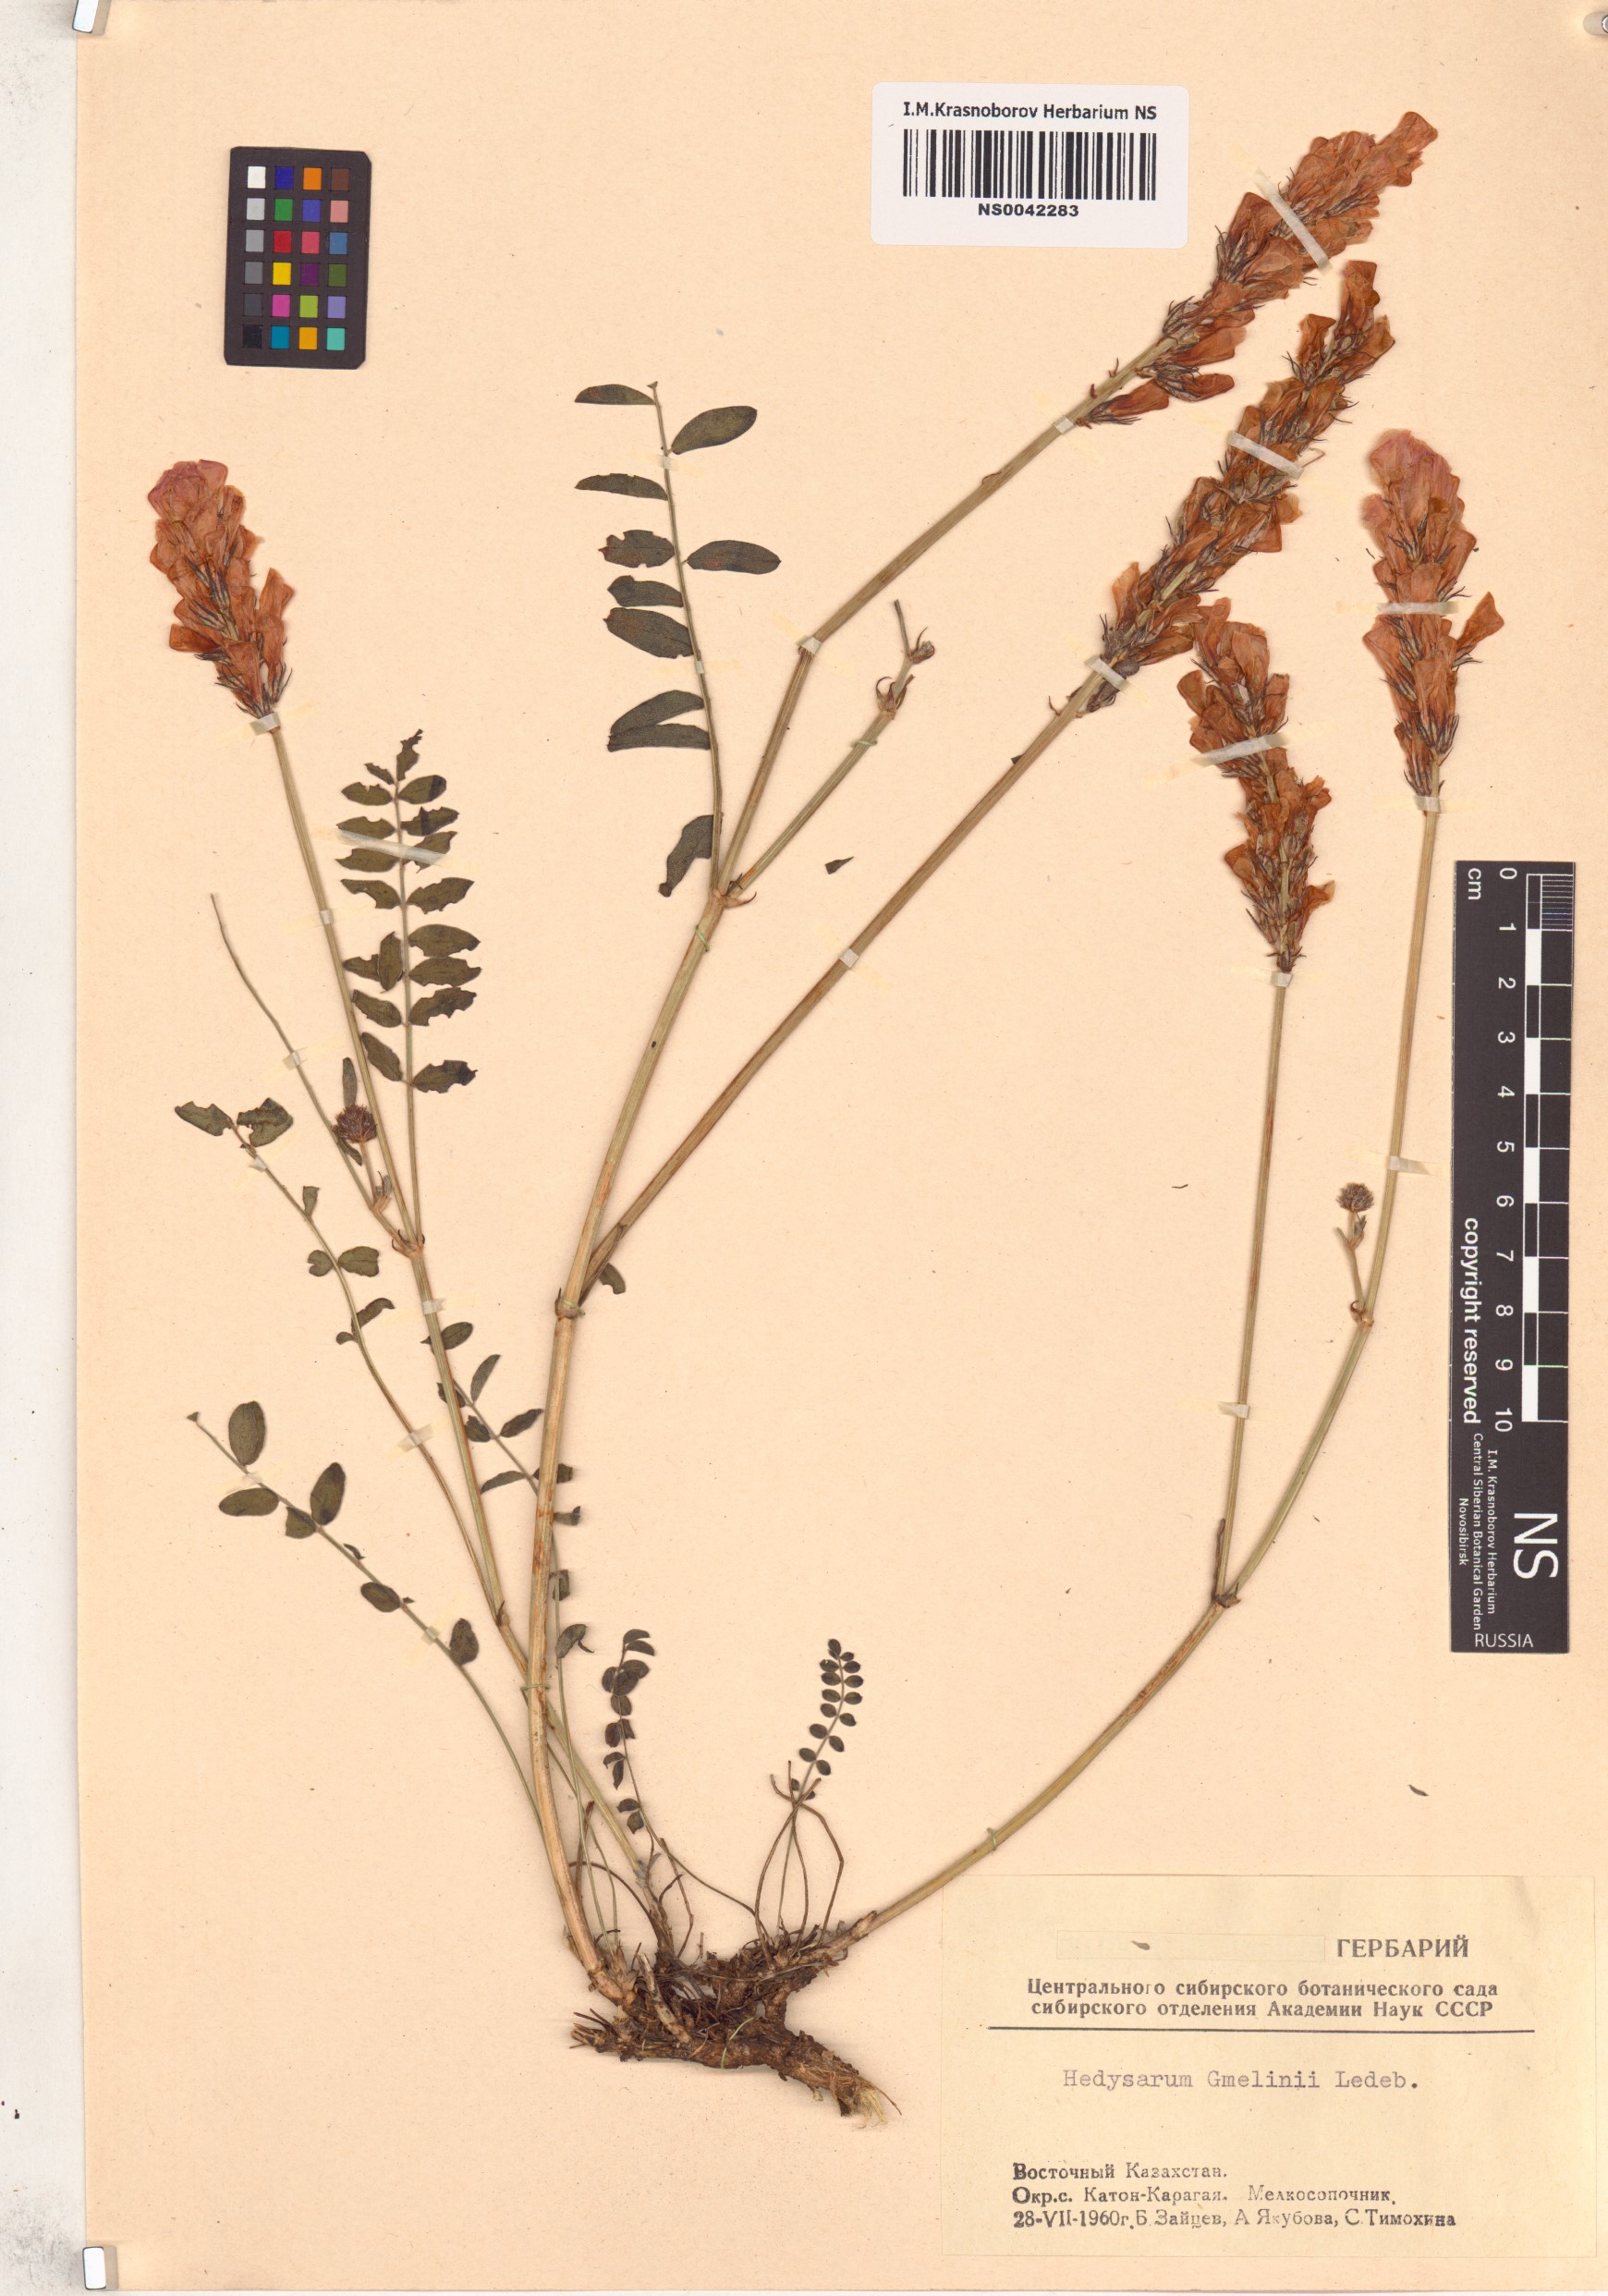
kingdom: Plantae
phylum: Tracheophyta
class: Magnoliopsida
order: Fabales
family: Fabaceae
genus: Hedysarum
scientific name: Hedysarum gmelinii
